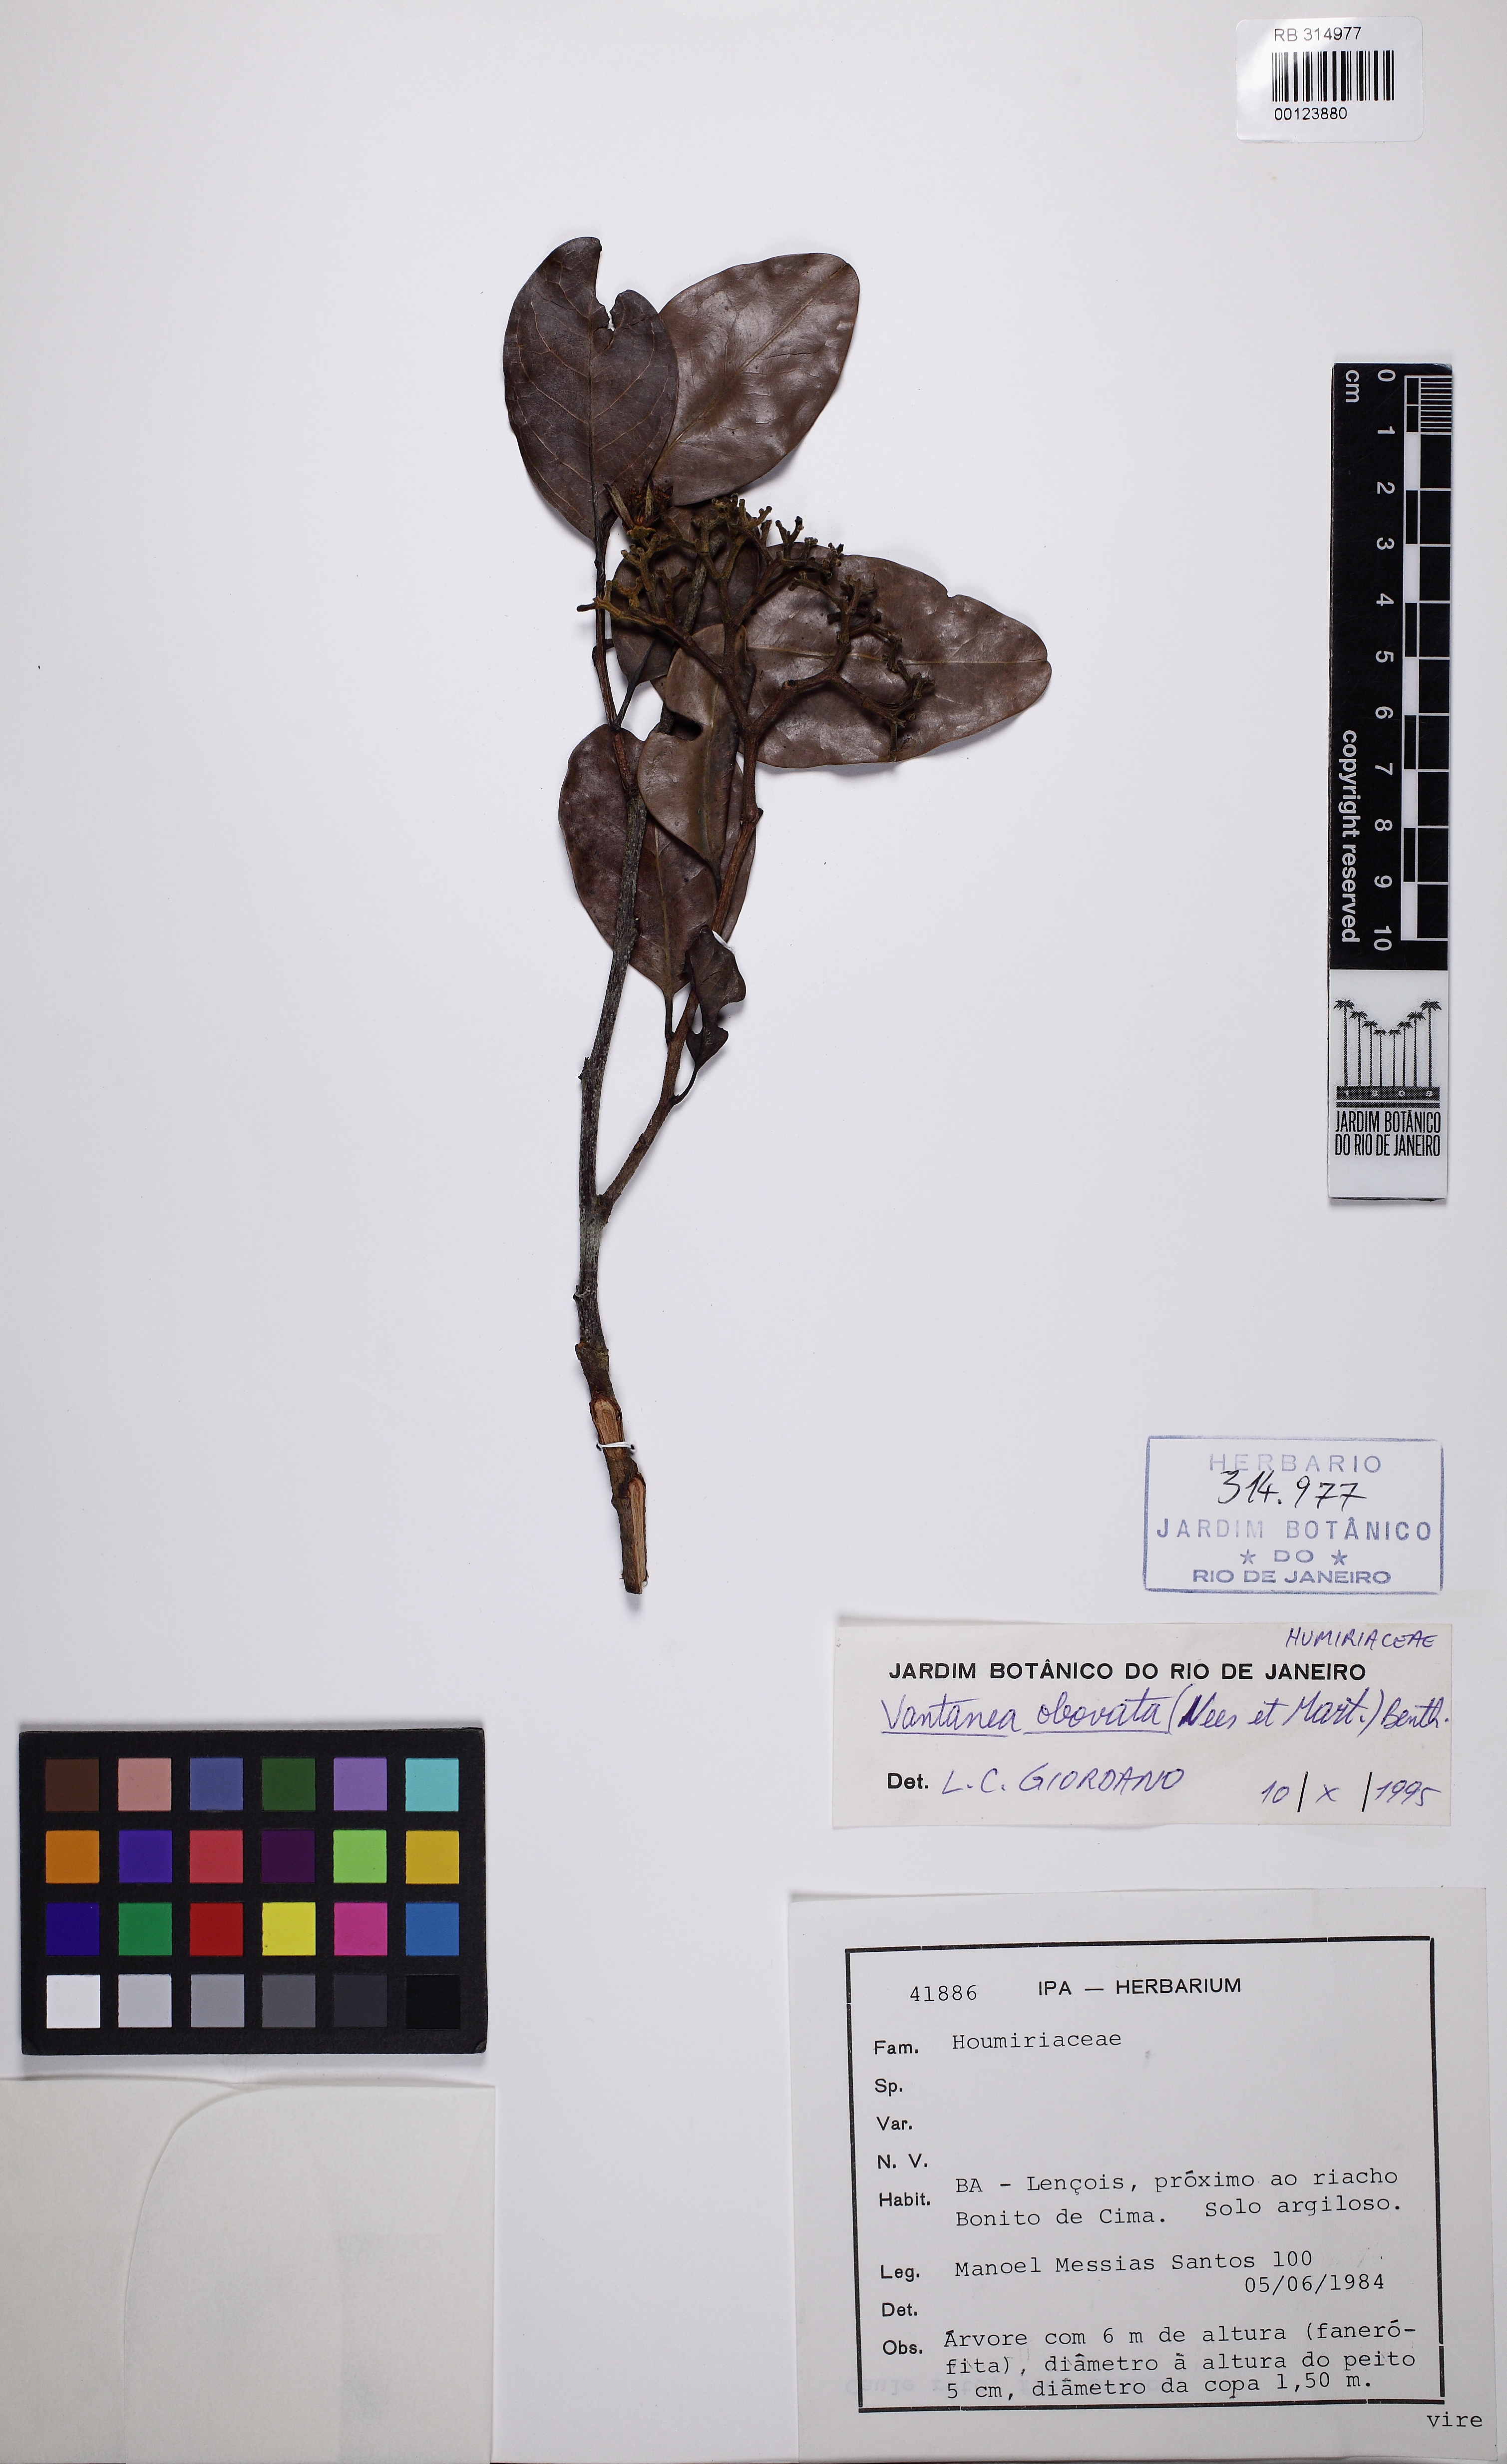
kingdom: Plantae
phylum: Tracheophyta
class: Magnoliopsida
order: Malpighiales
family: Humiriaceae
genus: Vantanea
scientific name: Vantanea obovata
